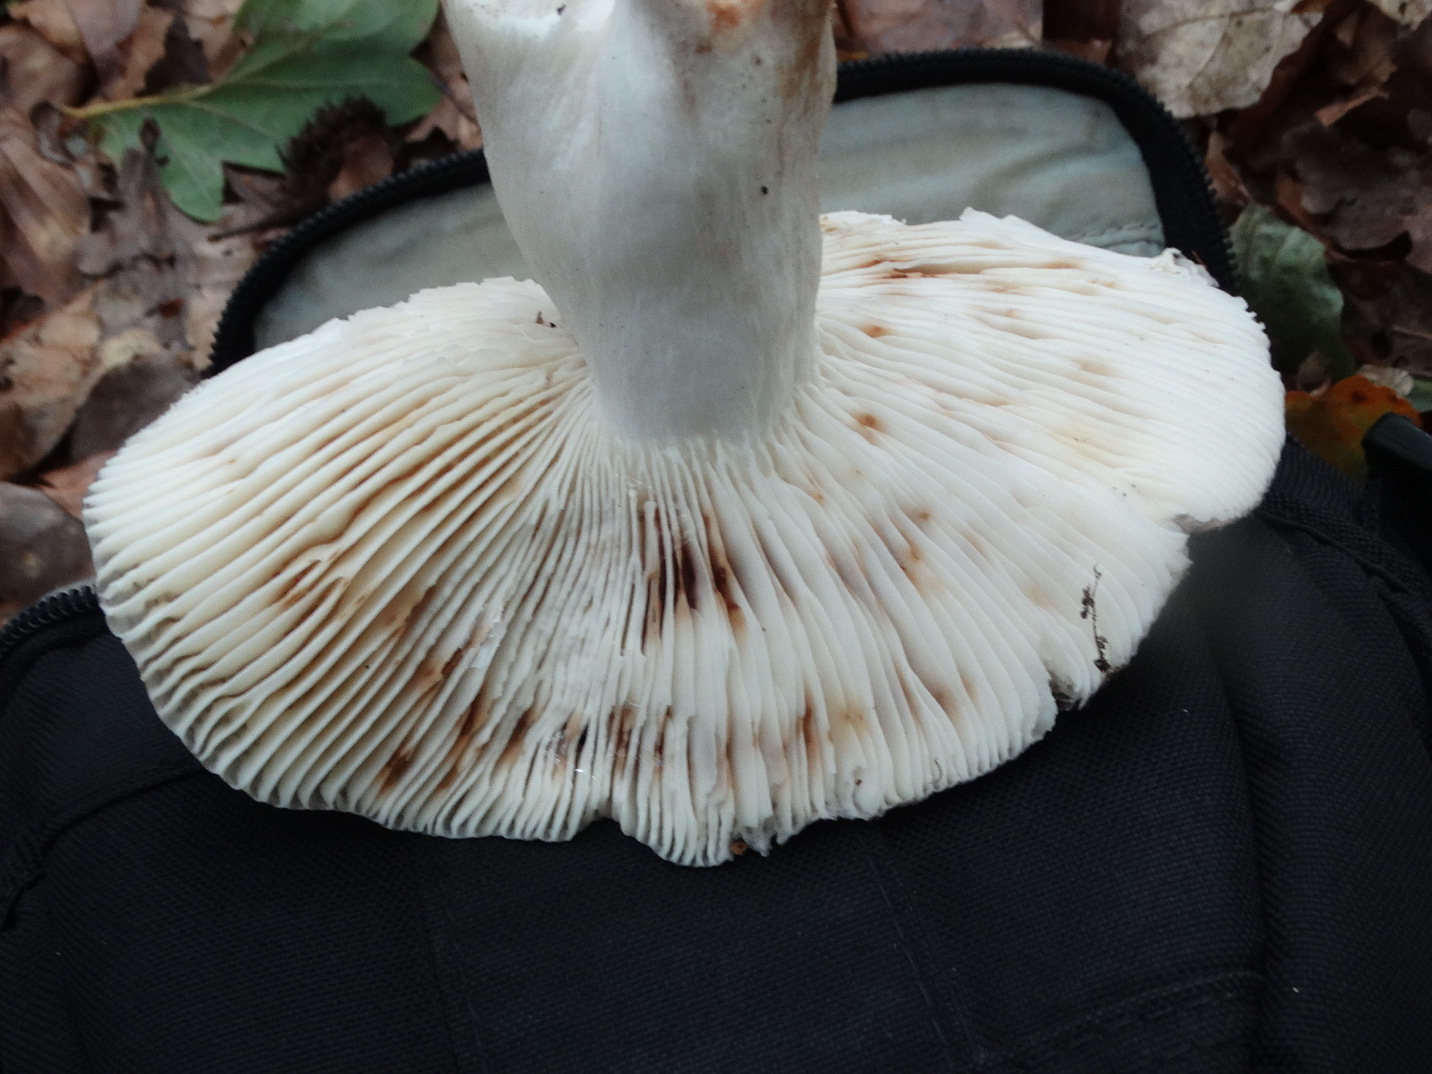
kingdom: Fungi
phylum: Basidiomycota
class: Agaricomycetes
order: Russulales
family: Russulaceae
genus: Russula
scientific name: Russula heterophylla
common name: gaffelbladet skørhat
